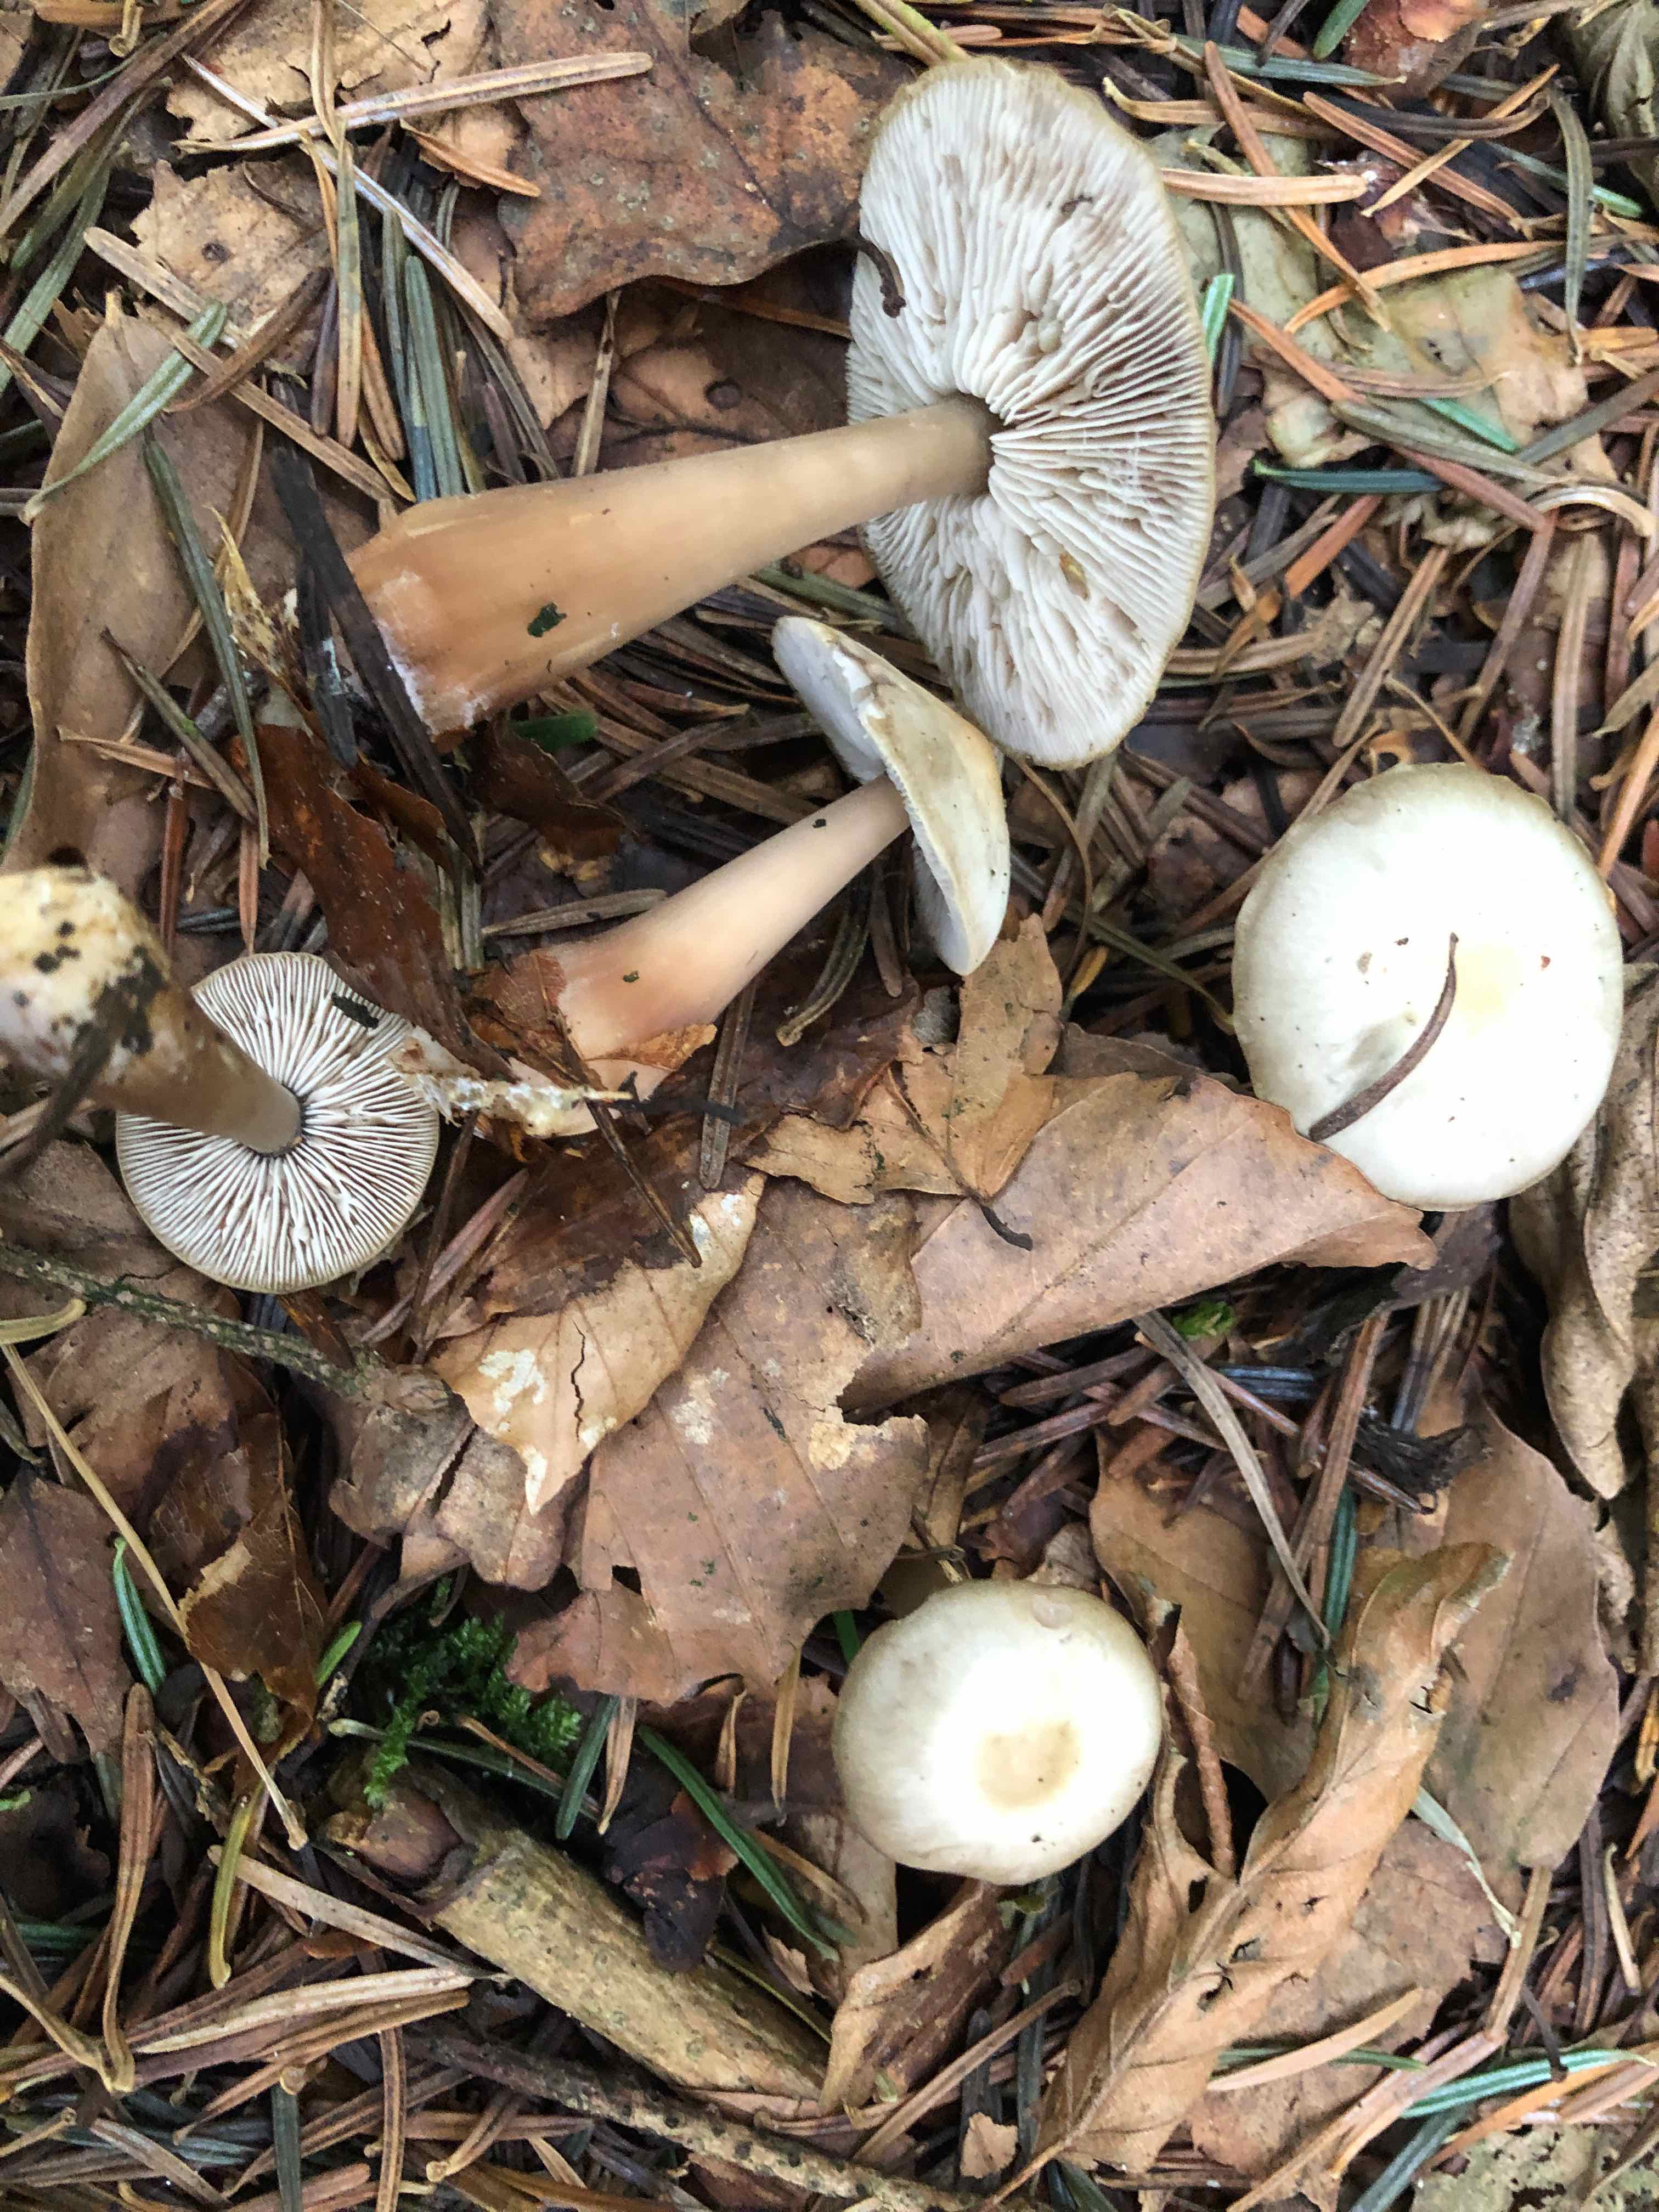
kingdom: Fungi
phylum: Basidiomycota
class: Agaricomycetes
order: Agaricales
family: Omphalotaceae
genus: Rhodocollybia
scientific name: Rhodocollybia asema
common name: horngrå fladhat
